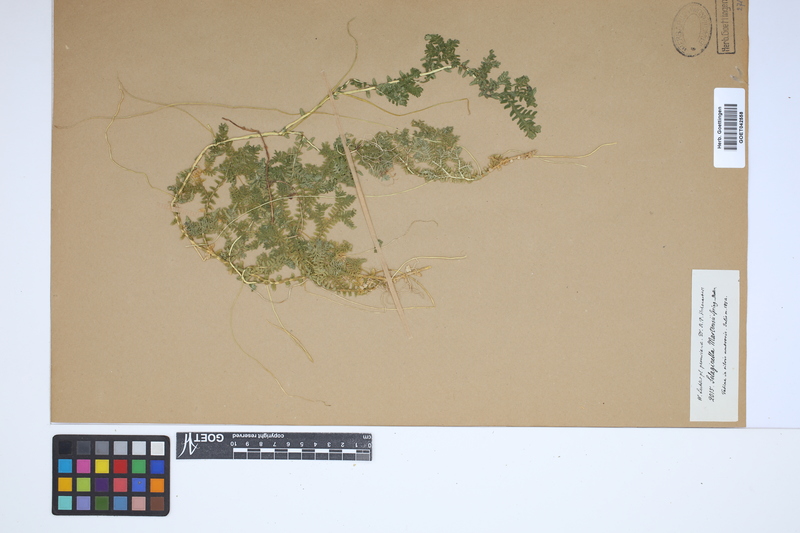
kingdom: Plantae
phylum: Tracheophyta
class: Lycopodiopsida
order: Selaginellales
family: Selaginellaceae
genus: Selaginella
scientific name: Selaginella martensii
